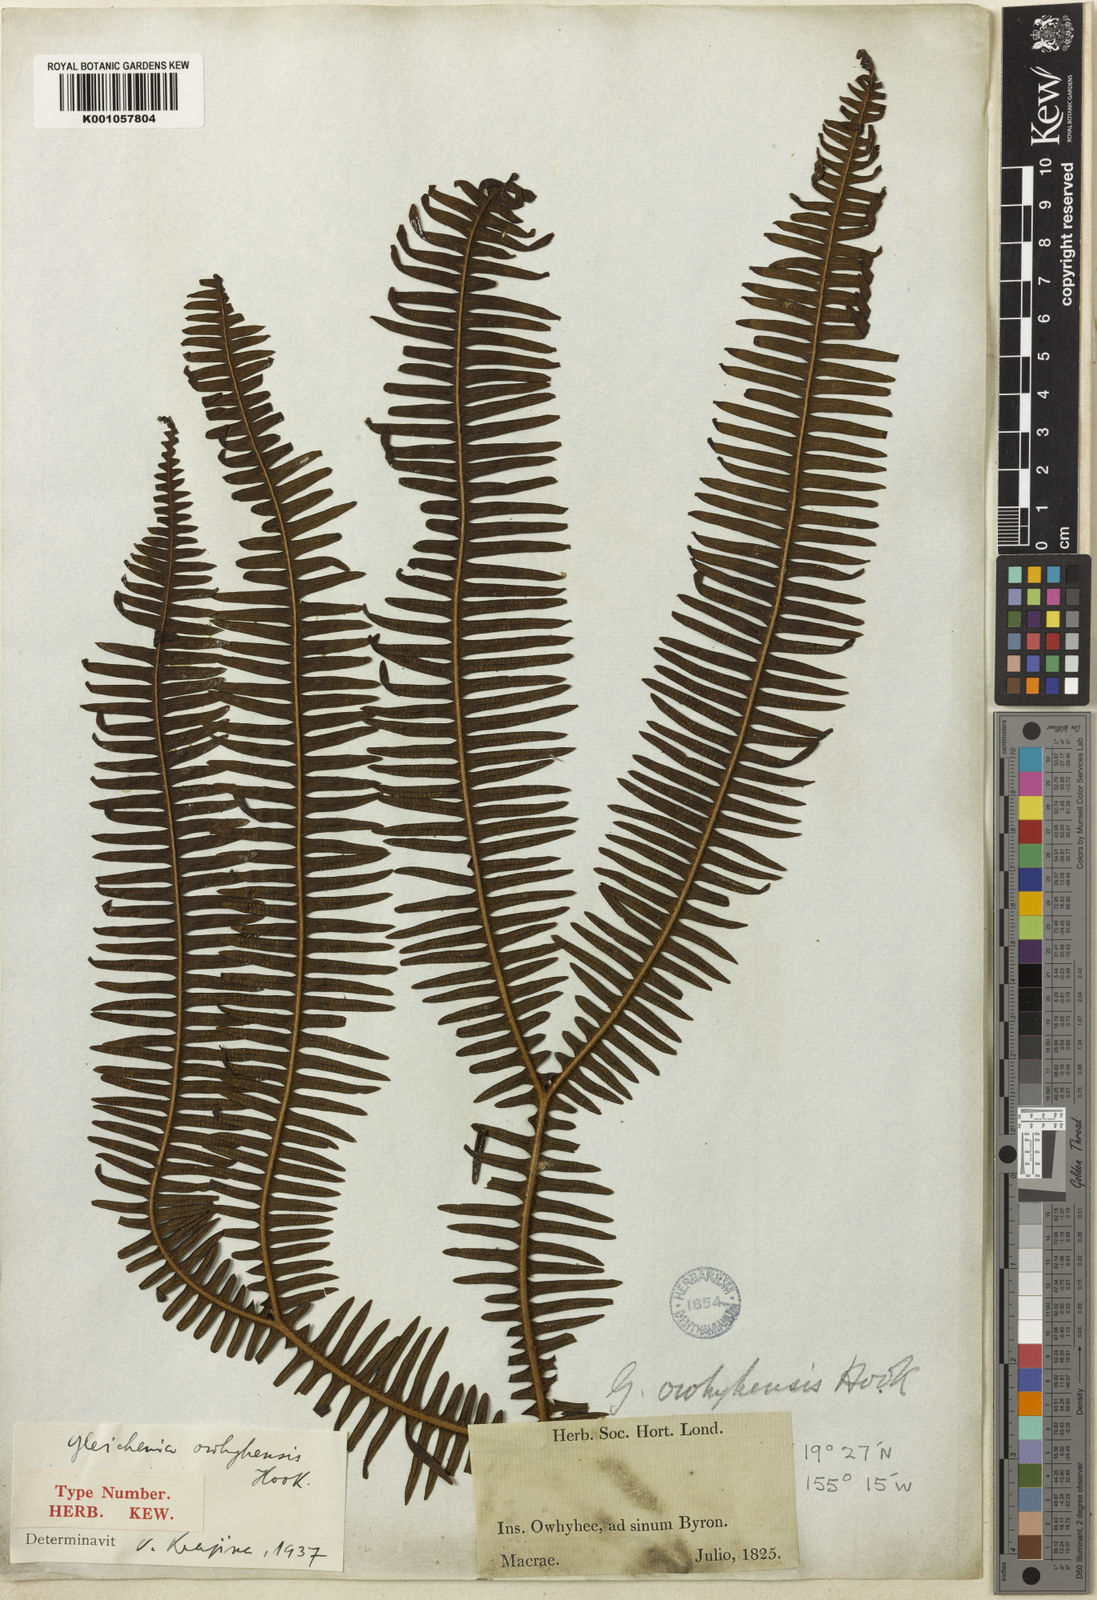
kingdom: Plantae
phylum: Tracheophyta
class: Polypodiopsida
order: Gleicheniales
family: Gleicheniaceae
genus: Sticherus
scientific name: Sticherus owhyhensis
